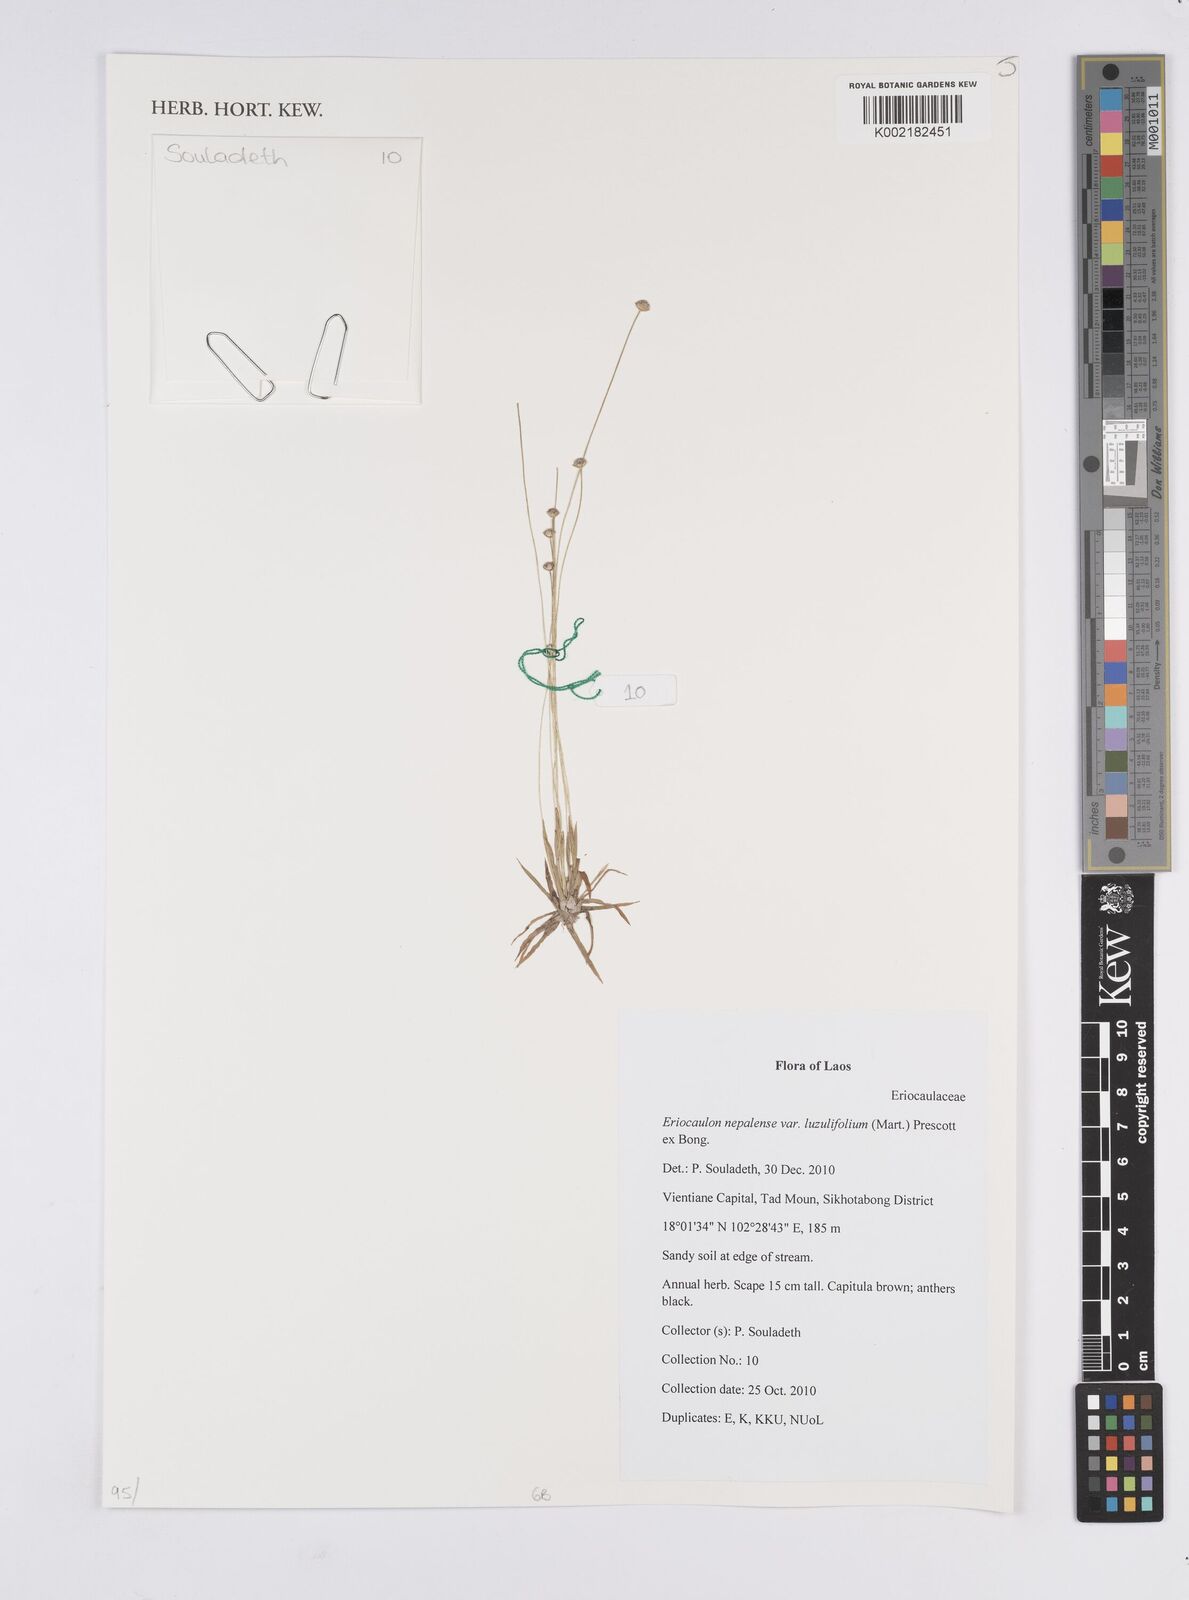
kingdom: Plantae
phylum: Tracheophyta
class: Liliopsida
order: Poales
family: Eriocaulaceae
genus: Eriocaulon
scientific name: Eriocaulon nepalense
